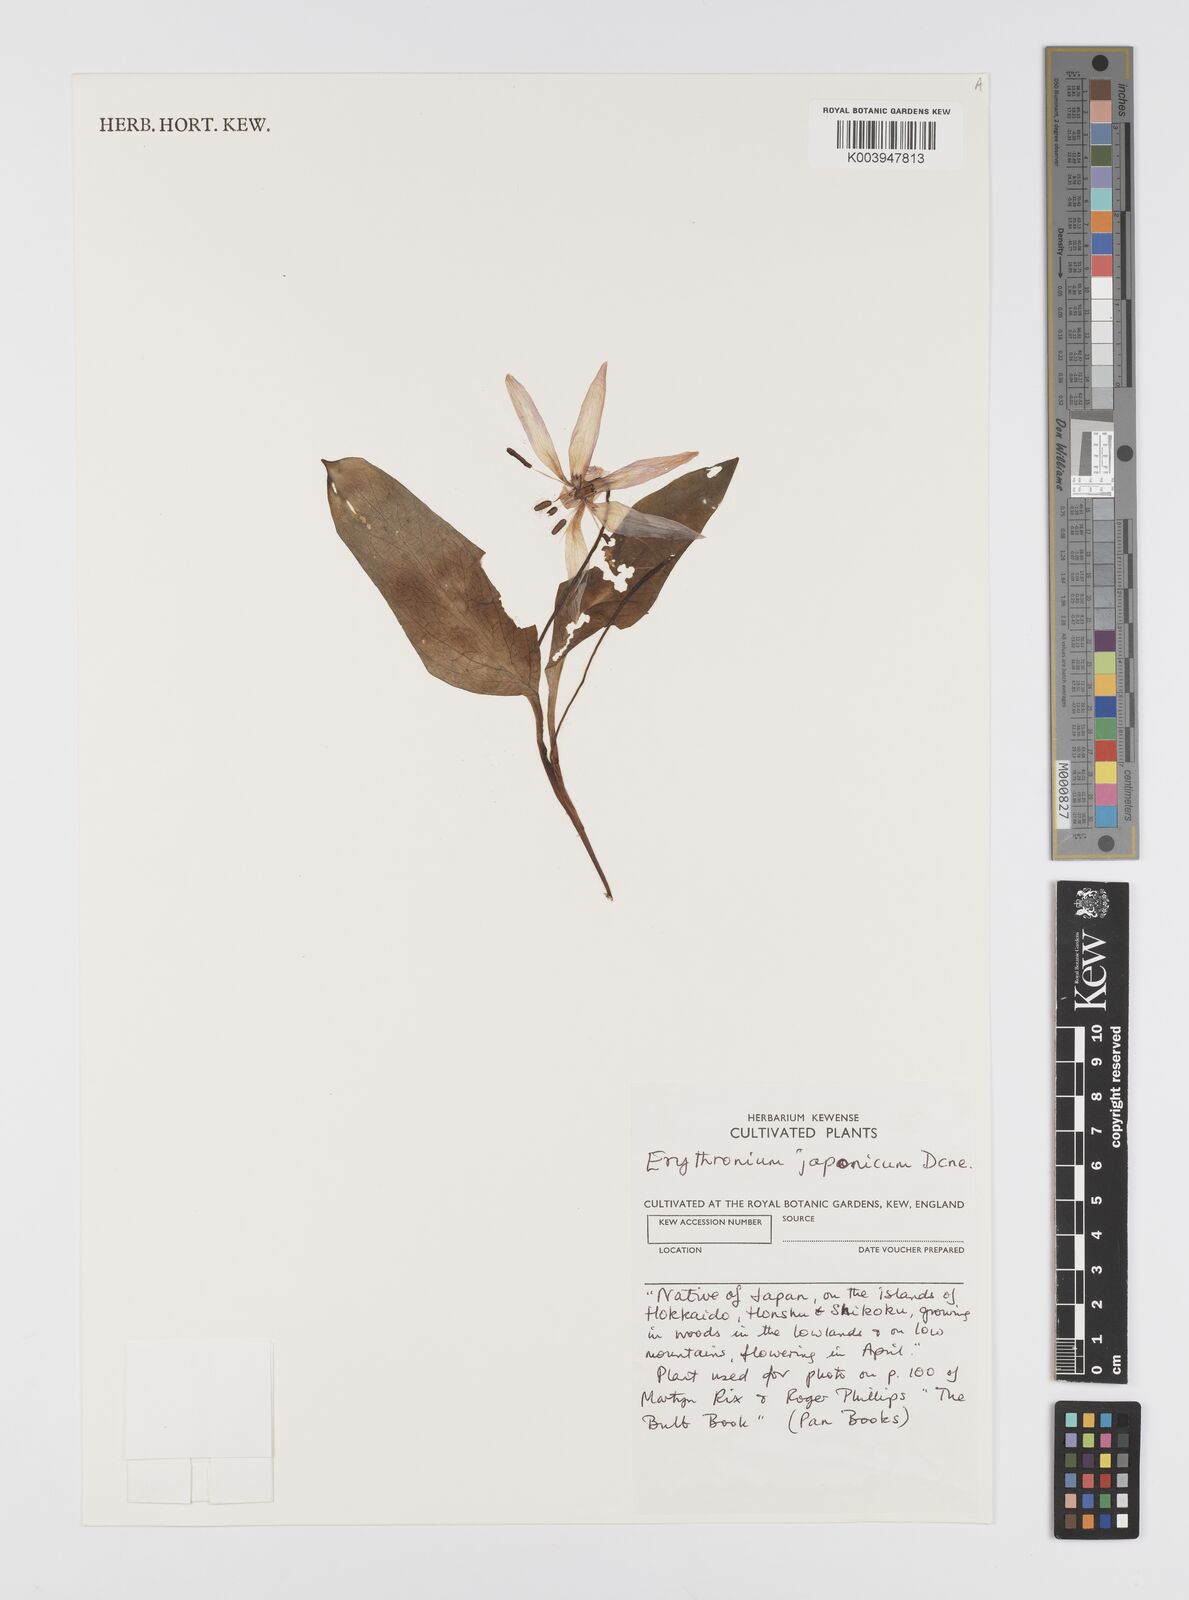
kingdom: Plantae
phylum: Tracheophyta
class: Liliopsida
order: Liliales
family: Liliaceae
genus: Erythronium
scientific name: Erythronium japonicum
